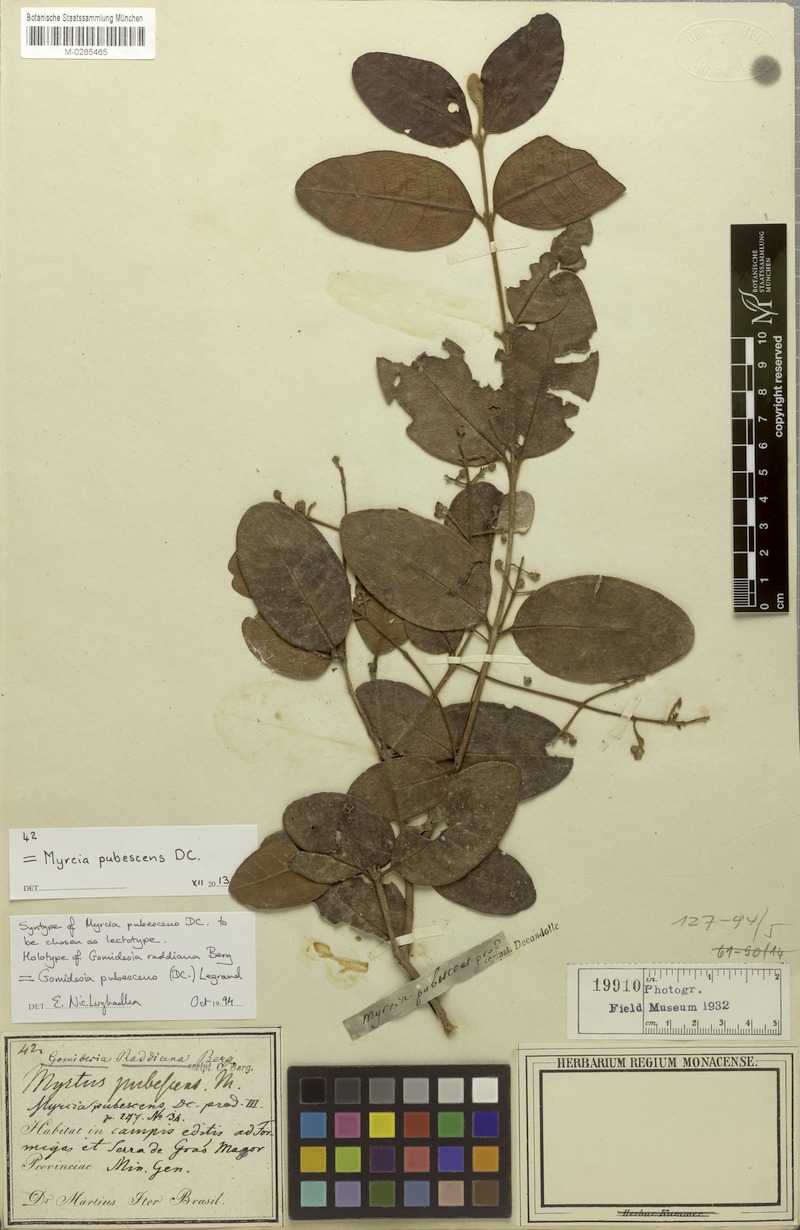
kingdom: Plantae
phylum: Tracheophyta
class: Magnoliopsida
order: Myrtales
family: Myrtaceae
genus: Myrcia
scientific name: Myrcia pubescens
